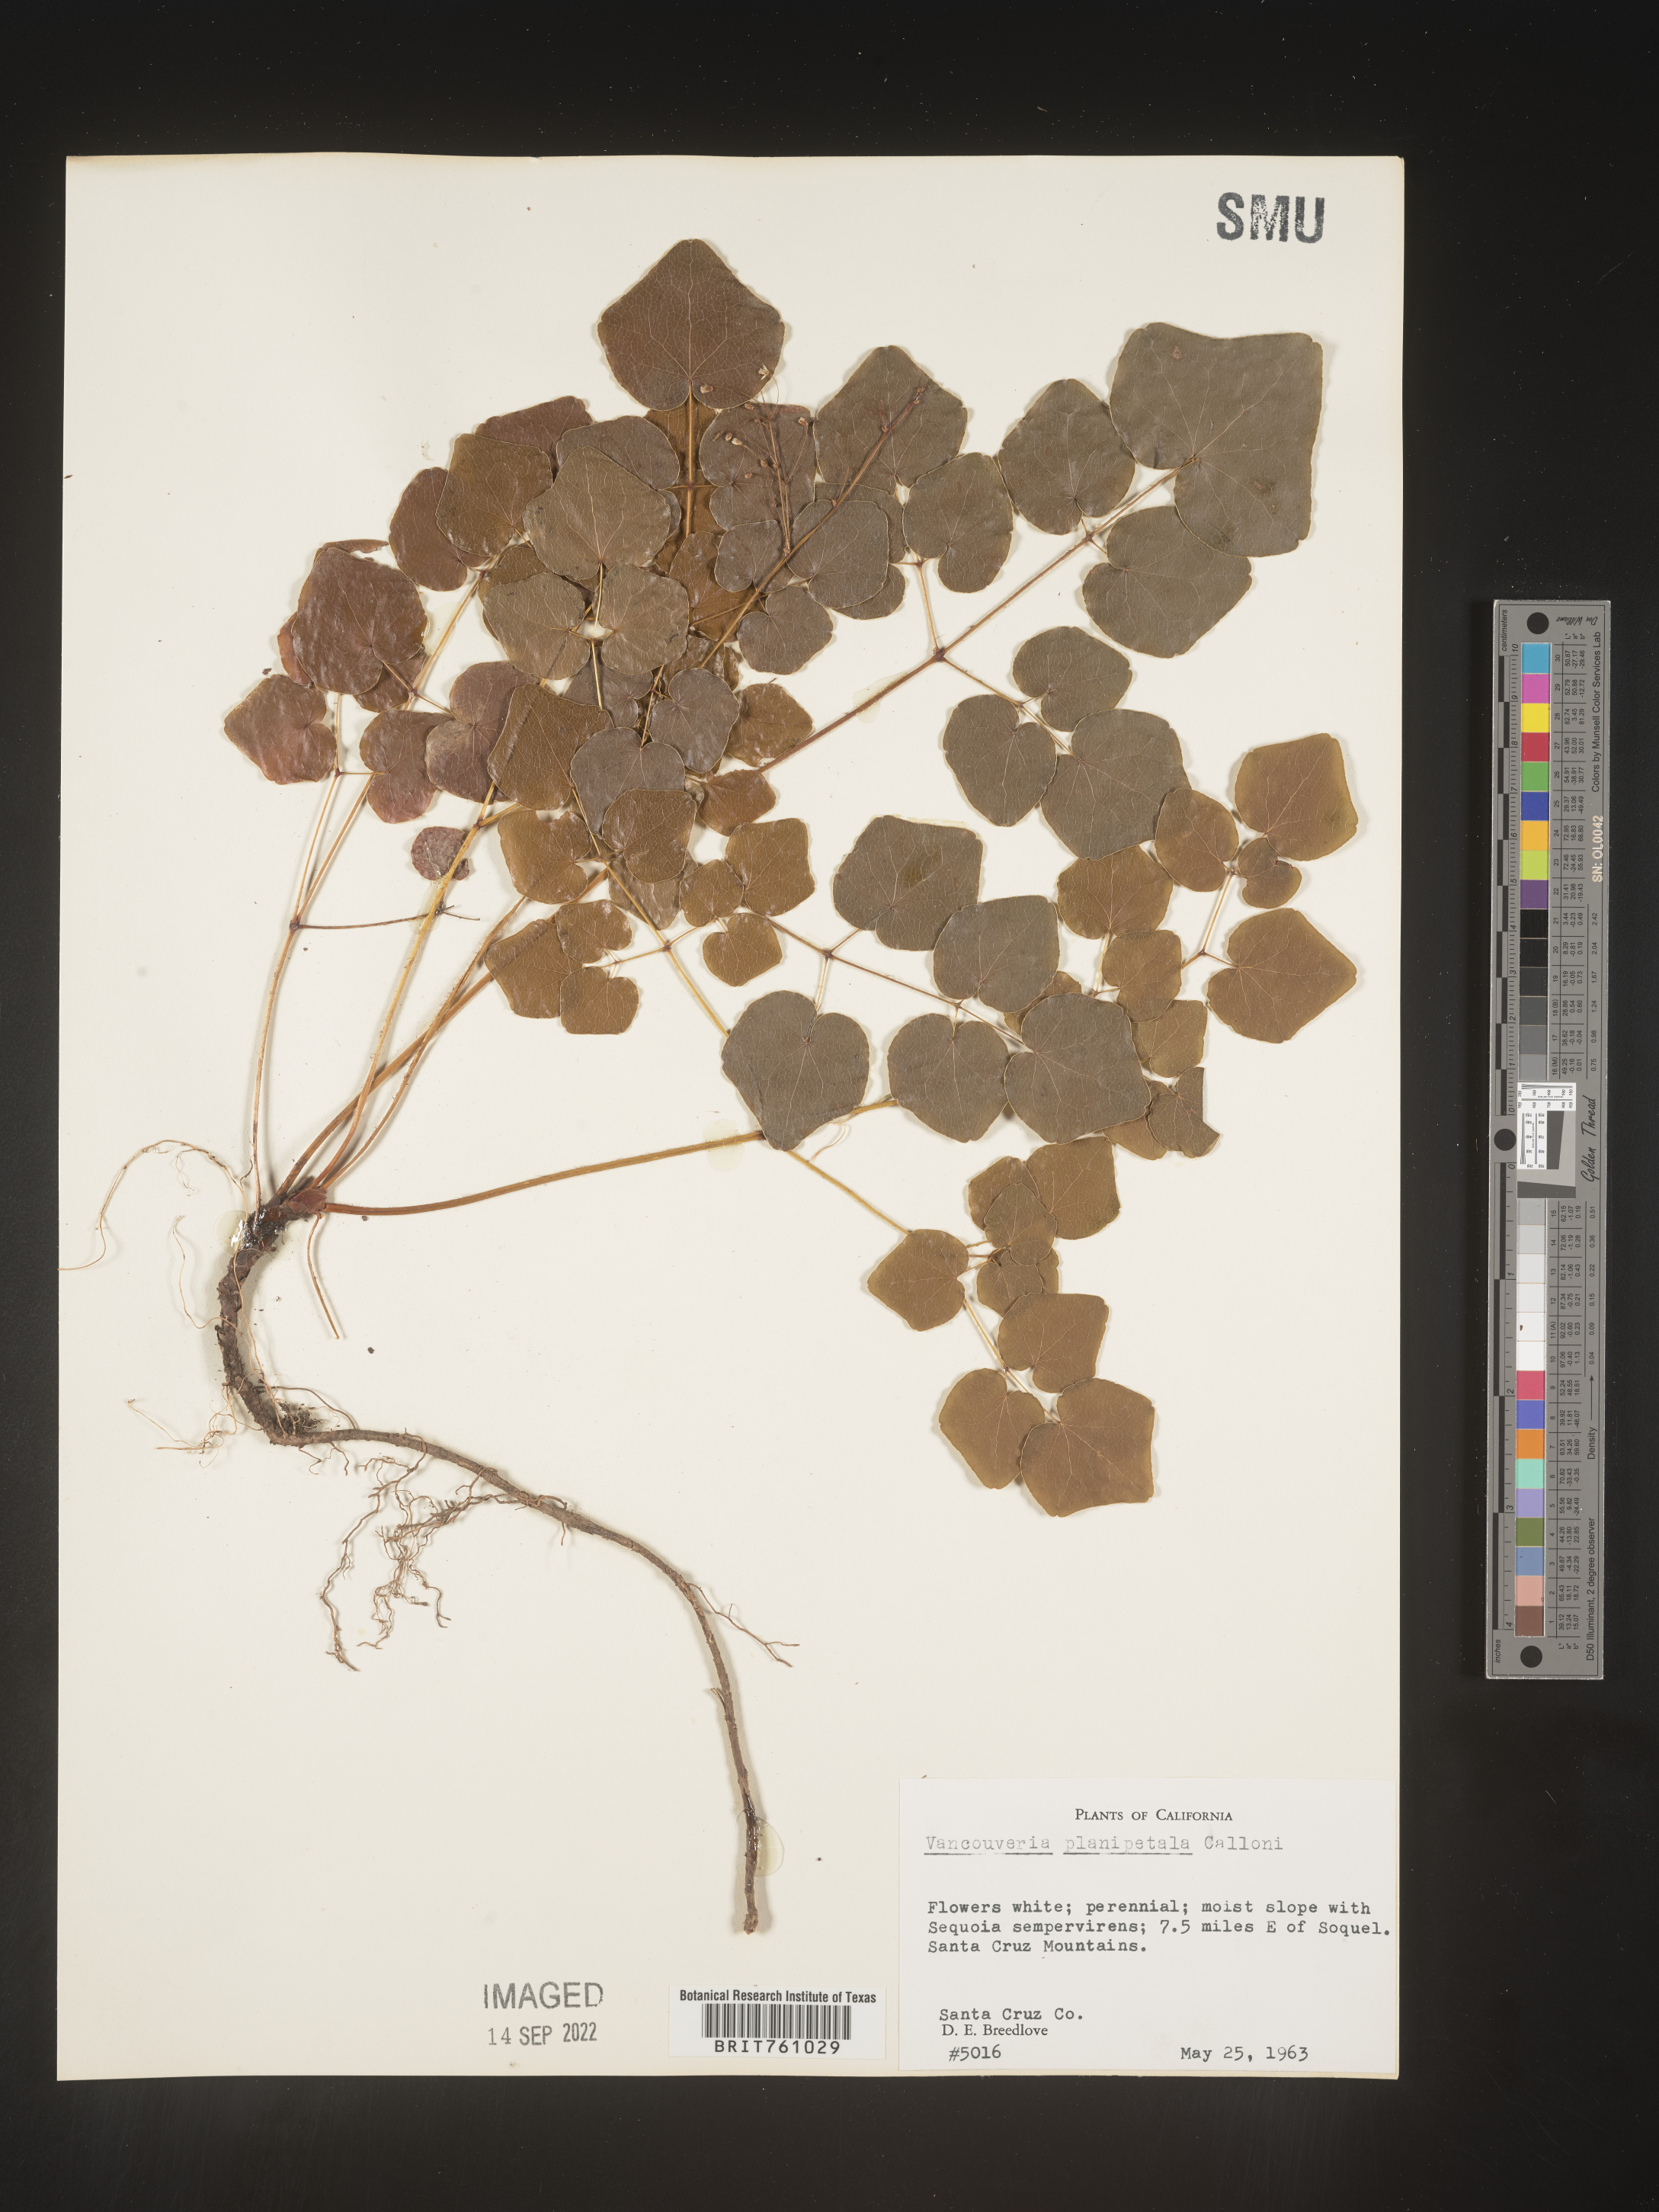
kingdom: Plantae
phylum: Tracheophyta
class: Magnoliopsida
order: Ranunculales
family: Berberidaceae
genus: Vancouveria
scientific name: Vancouveria
